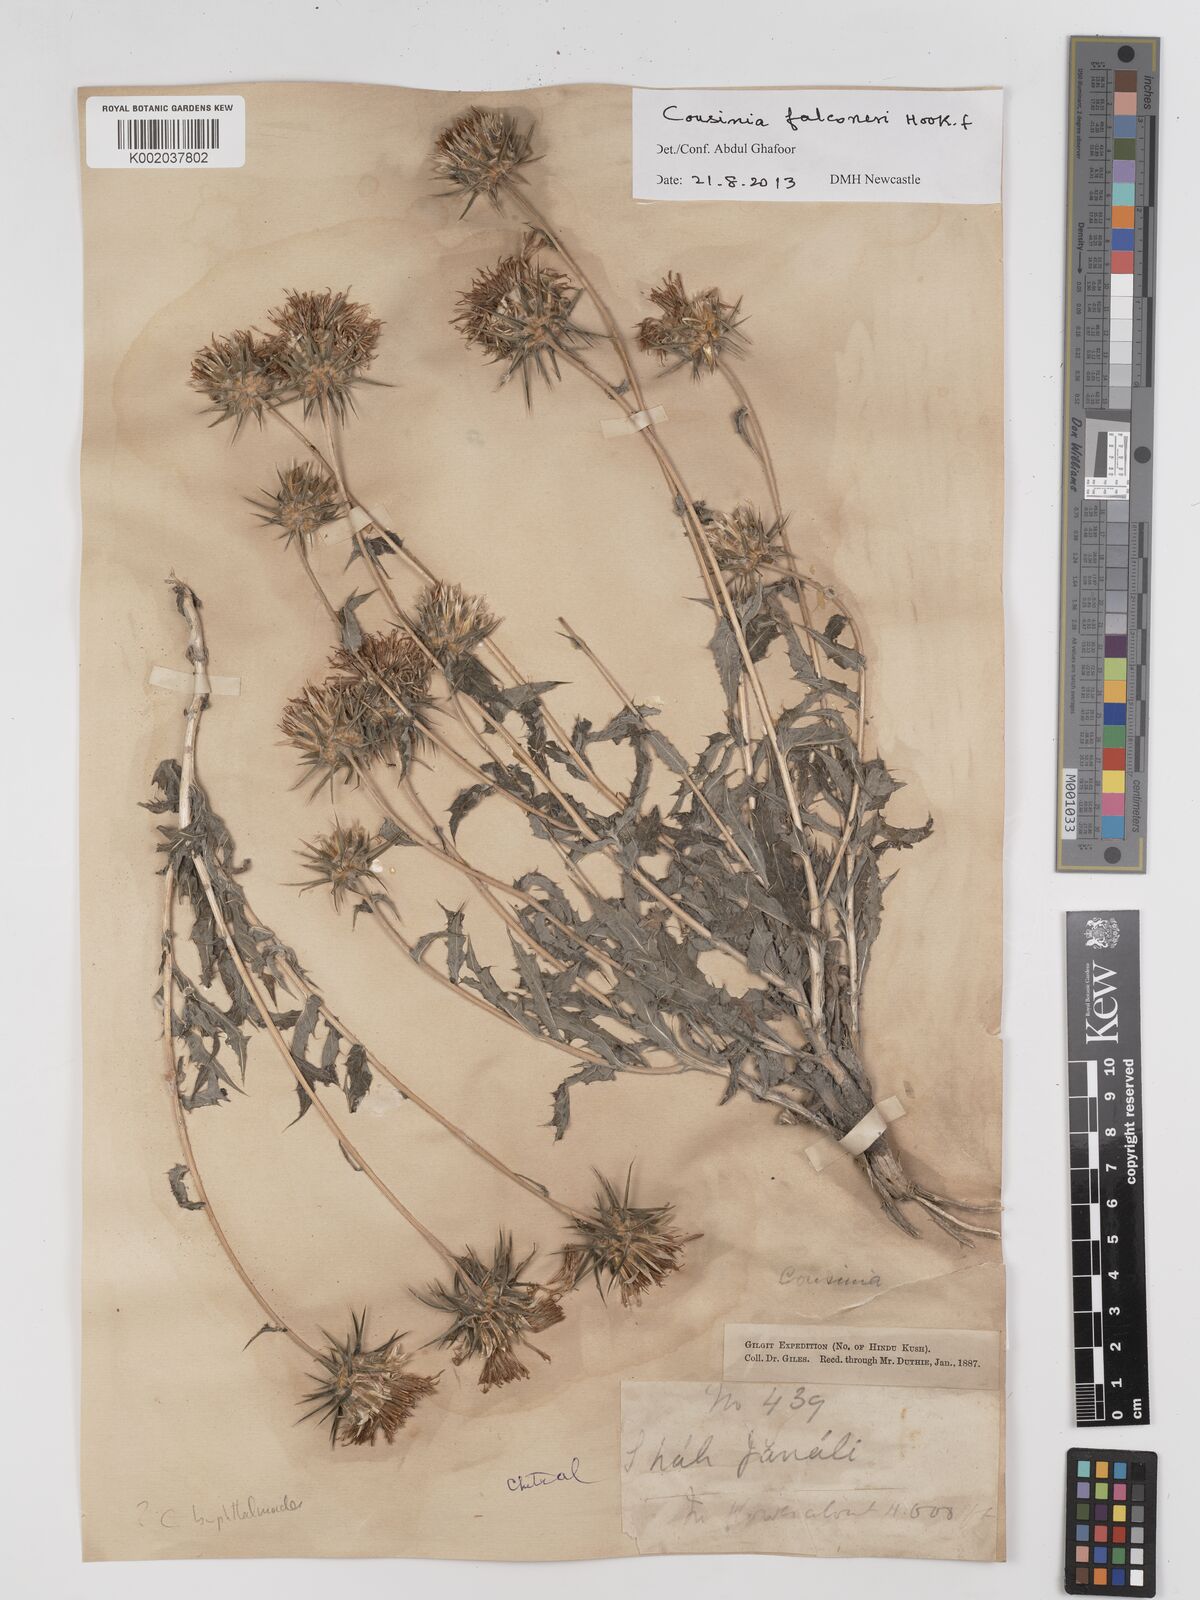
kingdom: Plantae
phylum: Tracheophyta
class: Magnoliopsida
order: Asterales
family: Asteraceae
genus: Cousinia
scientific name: Cousinia
